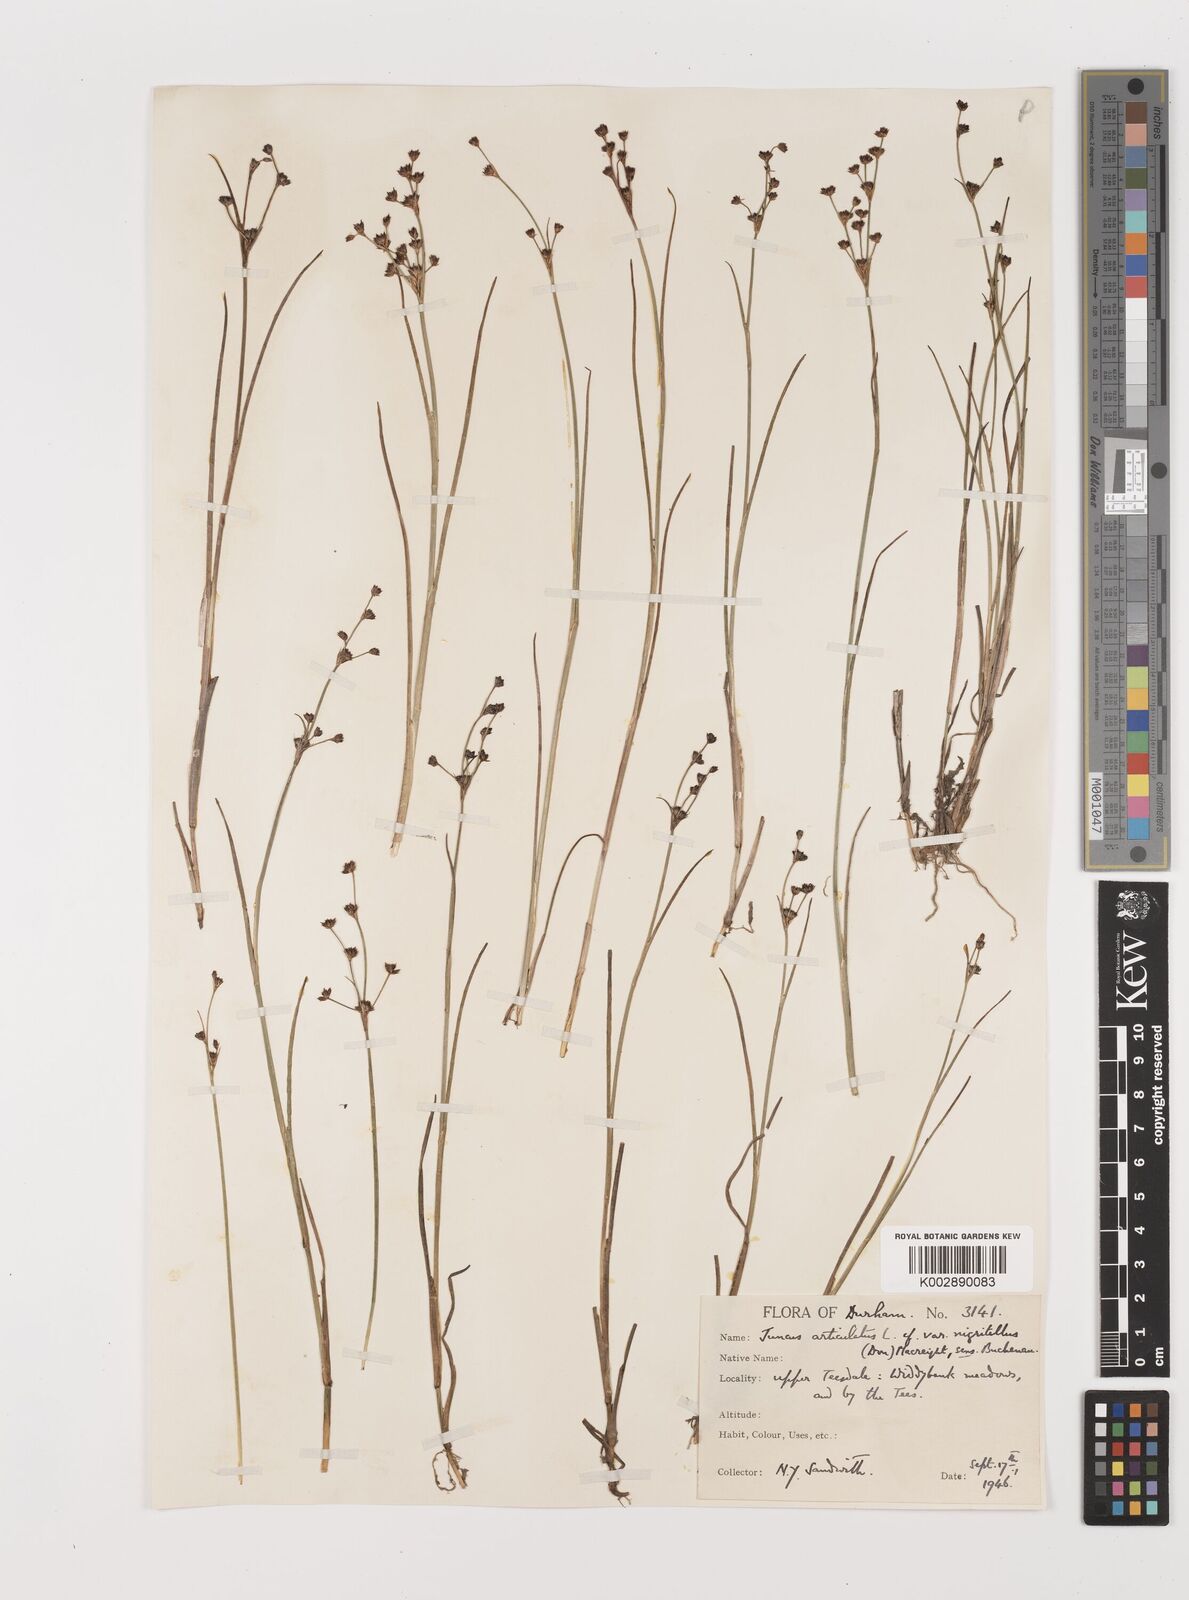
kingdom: Plantae
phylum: Tracheophyta
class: Liliopsida
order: Poales
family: Juncaceae
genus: Juncus
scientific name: Juncus articulatus
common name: Jointed rush
